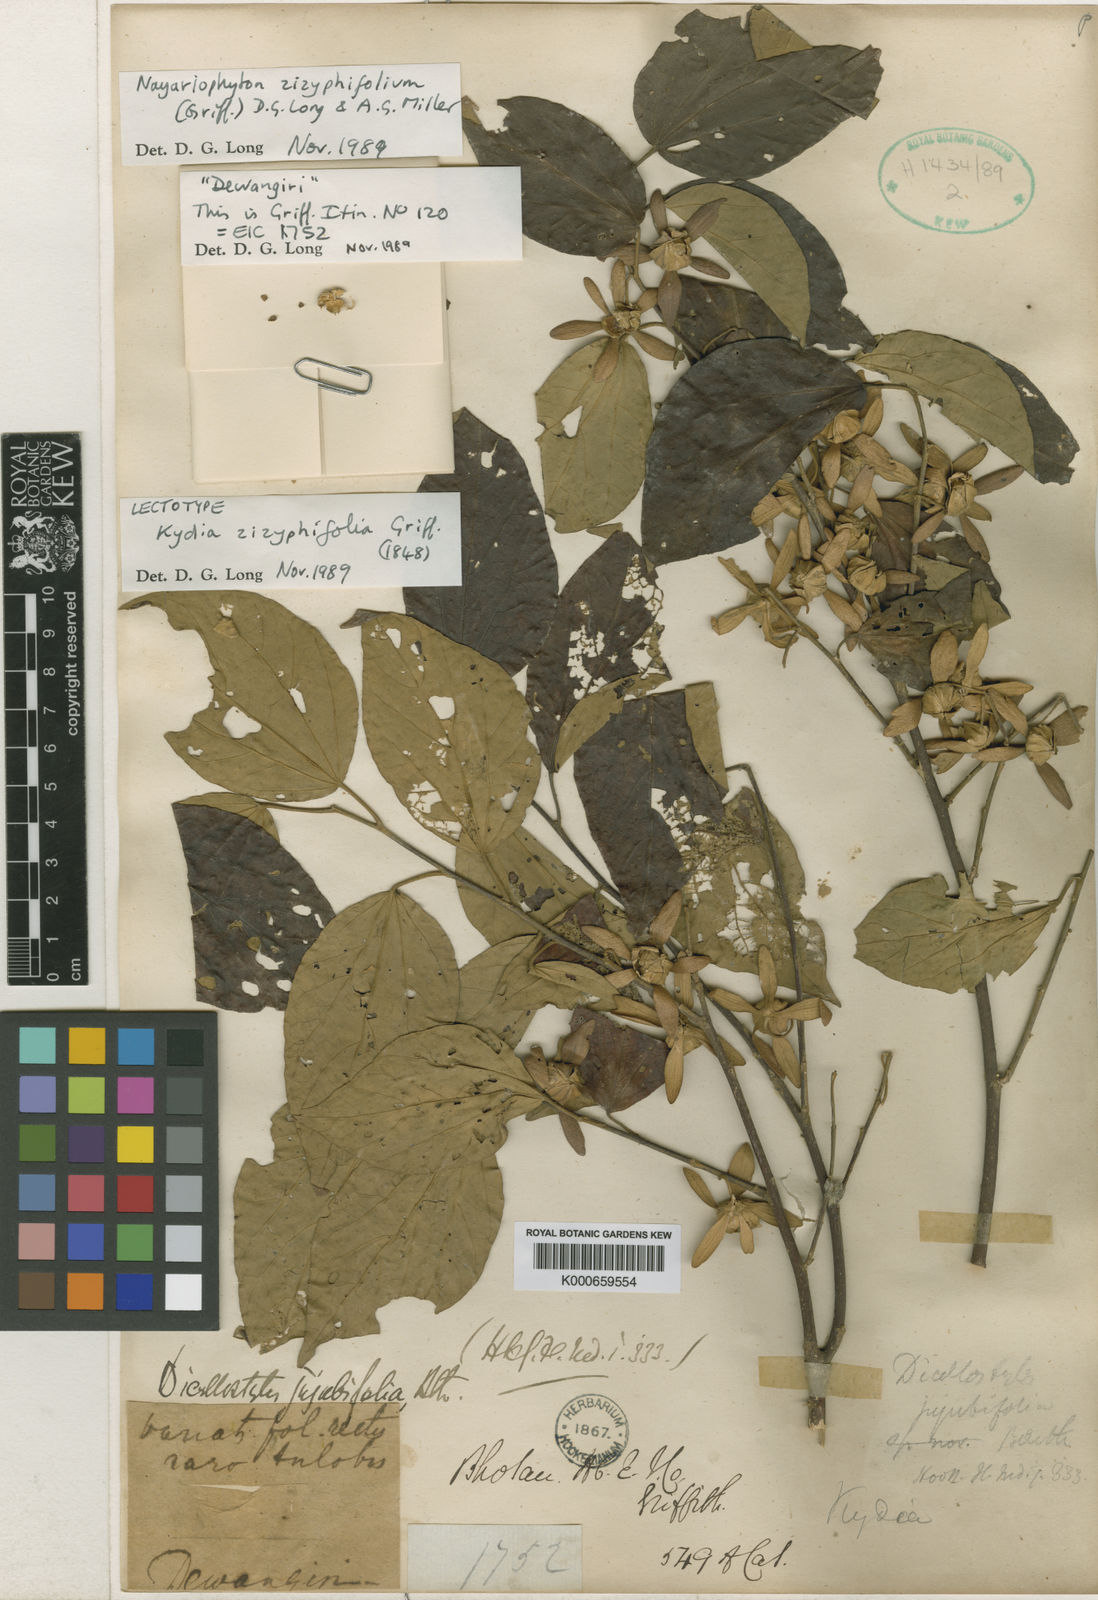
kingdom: Plantae
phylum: Tracheophyta
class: Magnoliopsida
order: Malvales
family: Malvaceae
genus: Dicellostyles
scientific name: Dicellostyles zizyphifolia
